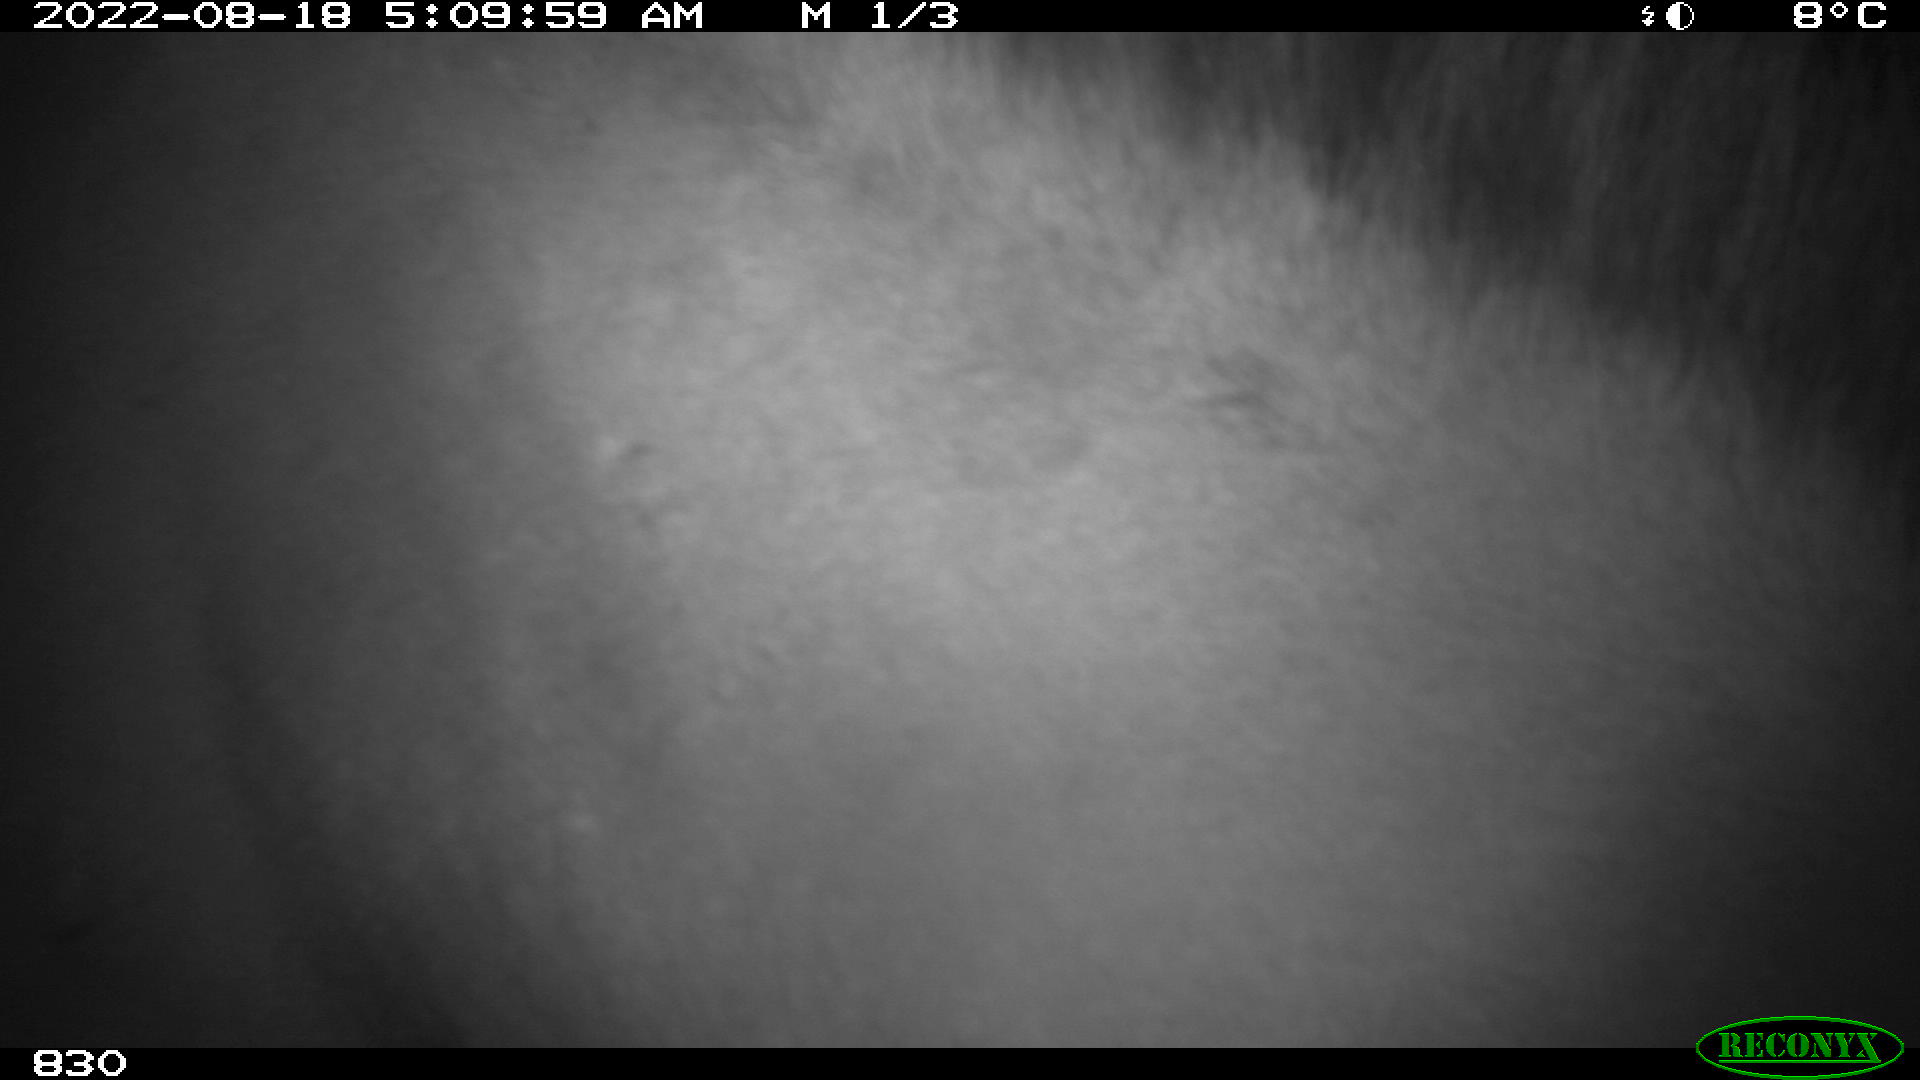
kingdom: Animalia
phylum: Chordata
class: Mammalia
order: Perissodactyla
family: Equidae
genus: Equus
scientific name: Equus caballus
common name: Horse
